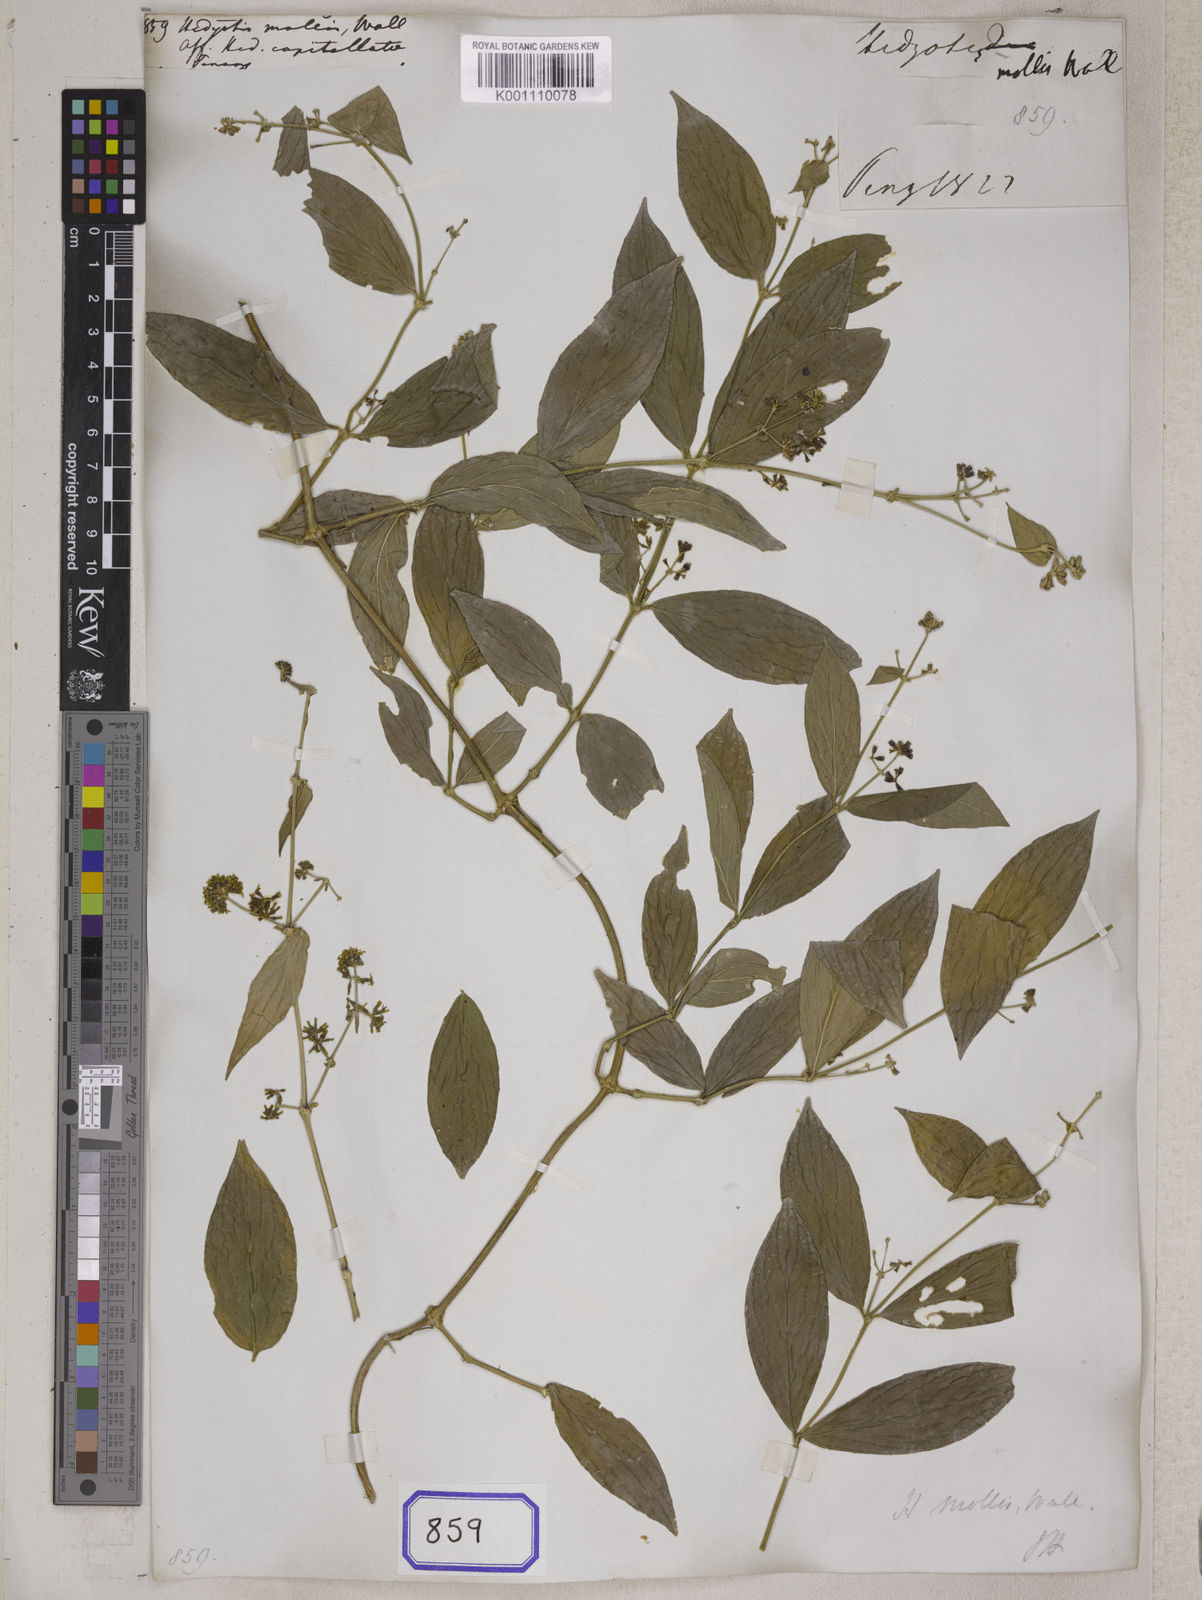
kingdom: Plantae
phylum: Tracheophyta
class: Magnoliopsida
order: Gentianales
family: Rubiaceae
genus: Hedyotis
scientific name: Hedyotis
